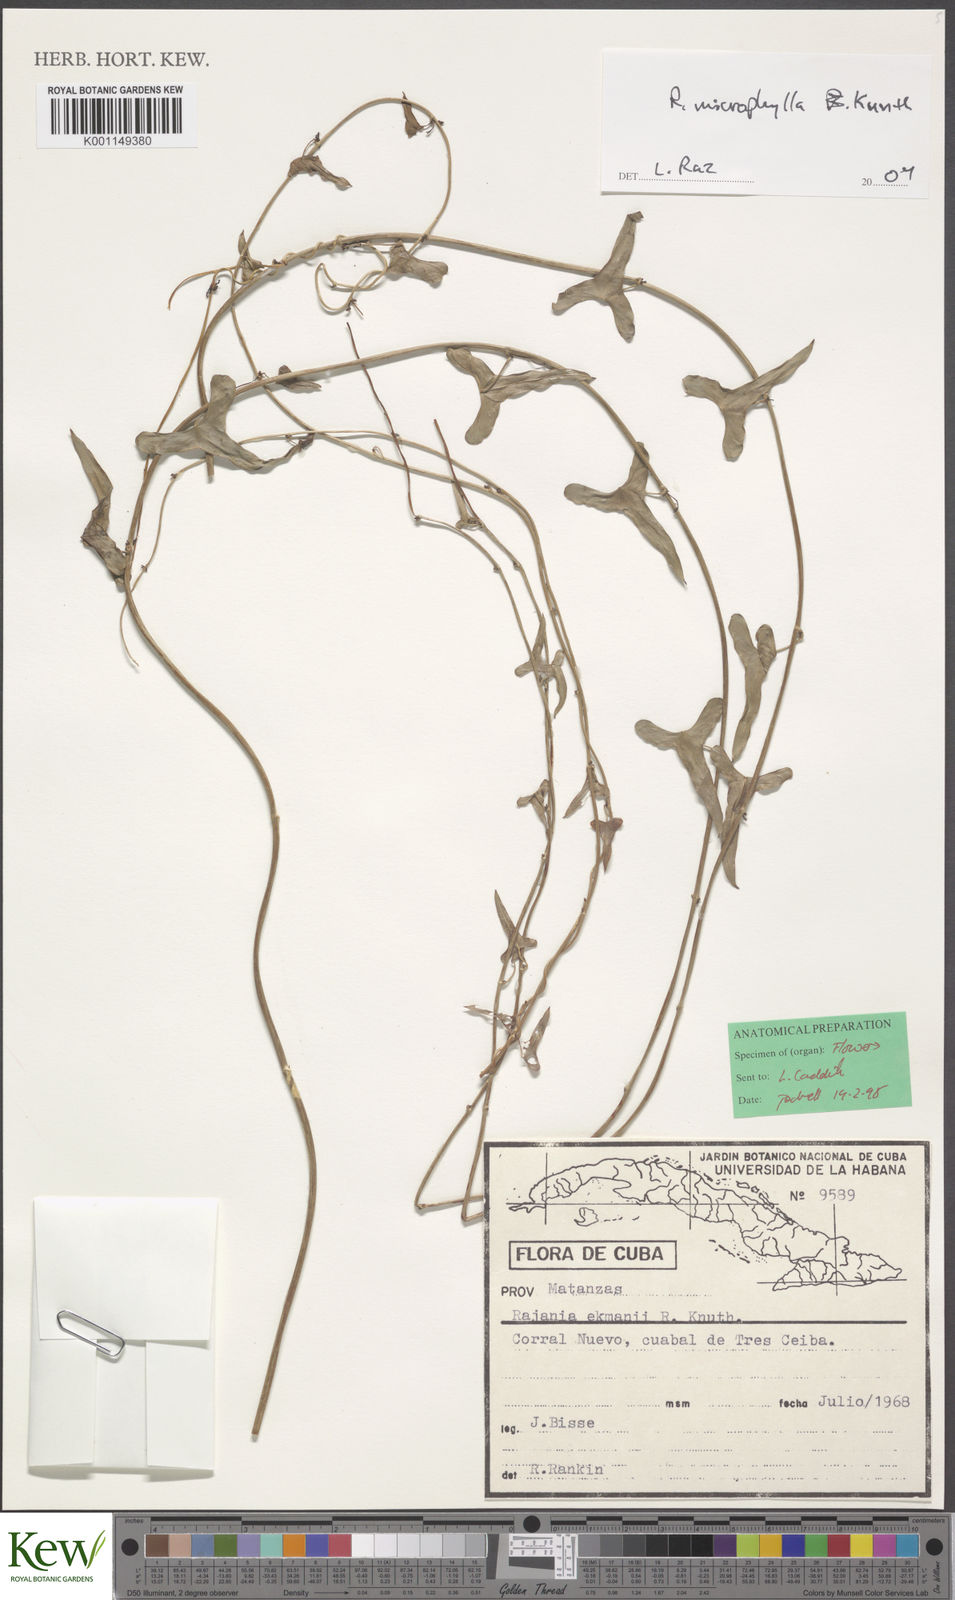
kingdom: Plantae
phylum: Tracheophyta
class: Liliopsida
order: Dioscoreales
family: Dioscoreaceae
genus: Dioscorea
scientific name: Dioscorea variifolia
